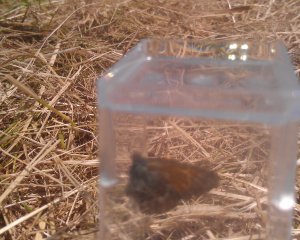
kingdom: Animalia
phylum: Arthropoda
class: Insecta
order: Lepidoptera
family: Nymphalidae
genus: Coenonympha
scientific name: Coenonympha tullia
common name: Large Heath
